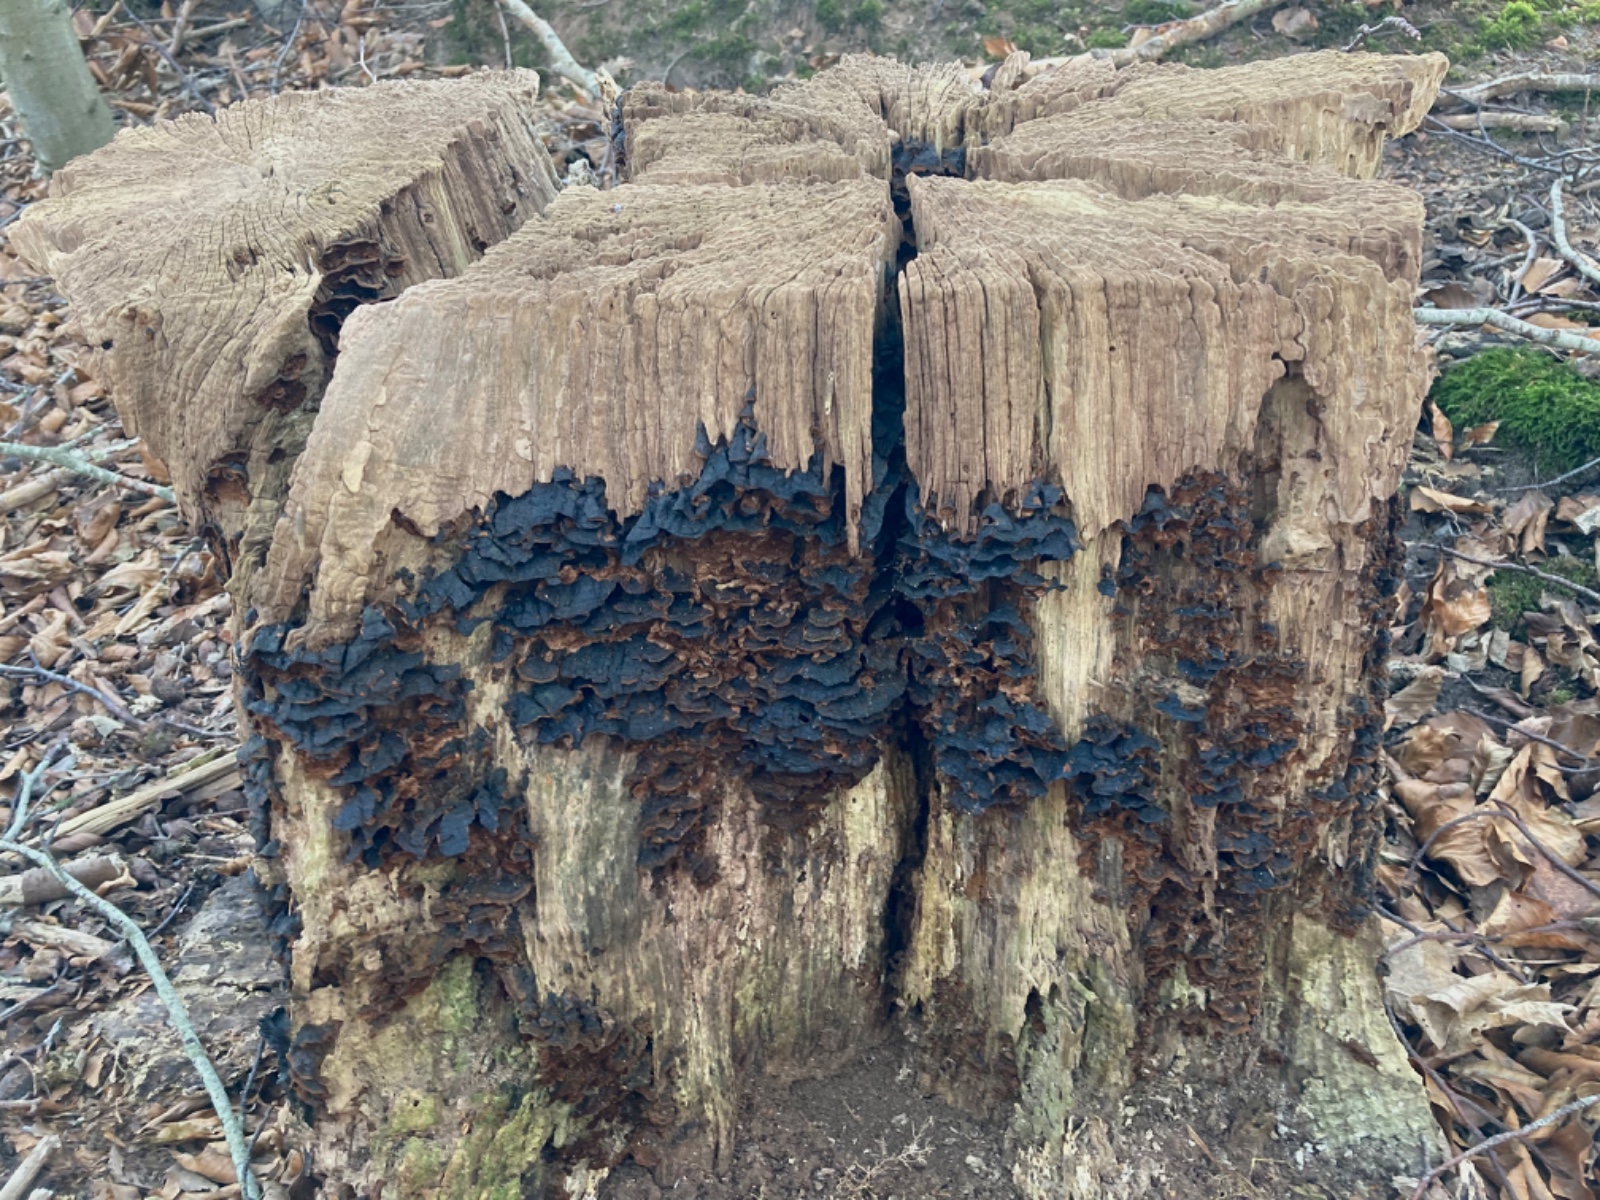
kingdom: Fungi
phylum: Basidiomycota
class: Agaricomycetes
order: Hymenochaetales
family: Hymenochaetaceae
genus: Hymenochaete
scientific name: Hymenochaete rubiginosa
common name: stiv ruslædersvamp
